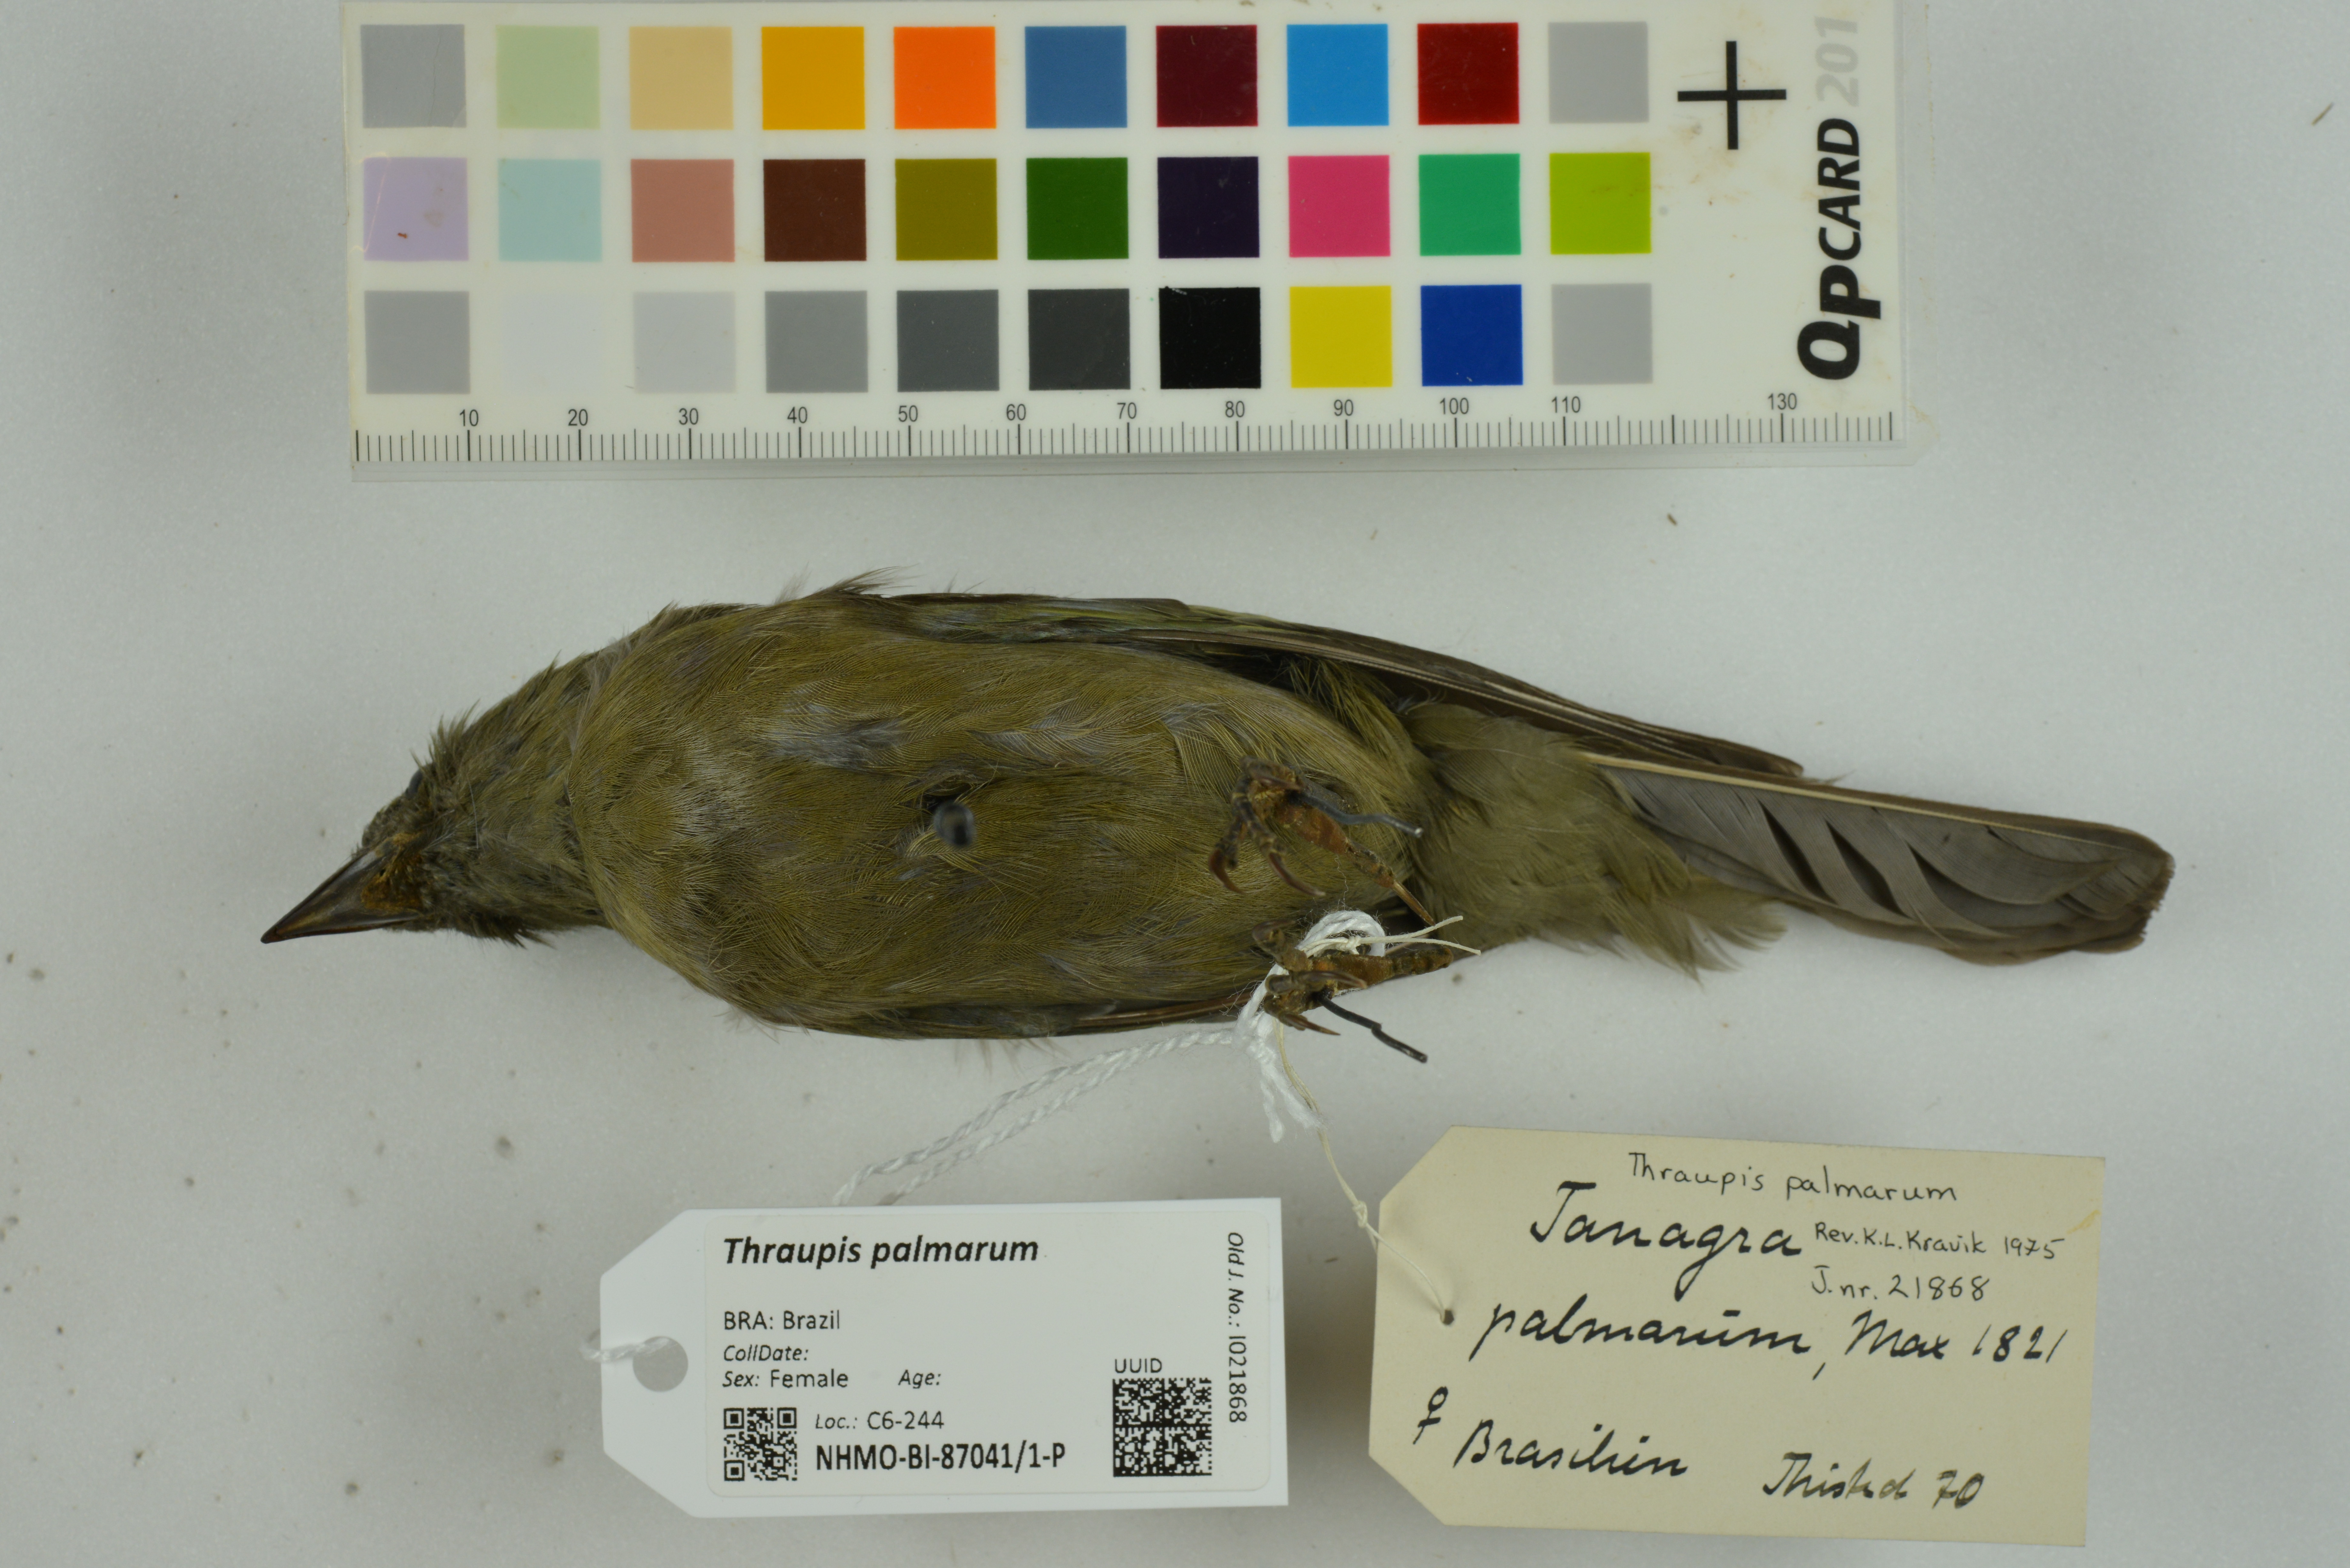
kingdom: Animalia
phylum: Chordata
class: Aves
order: Passeriformes
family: Thraupidae
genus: Thraupis
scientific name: Thraupis palmarum
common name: Palm tanager
